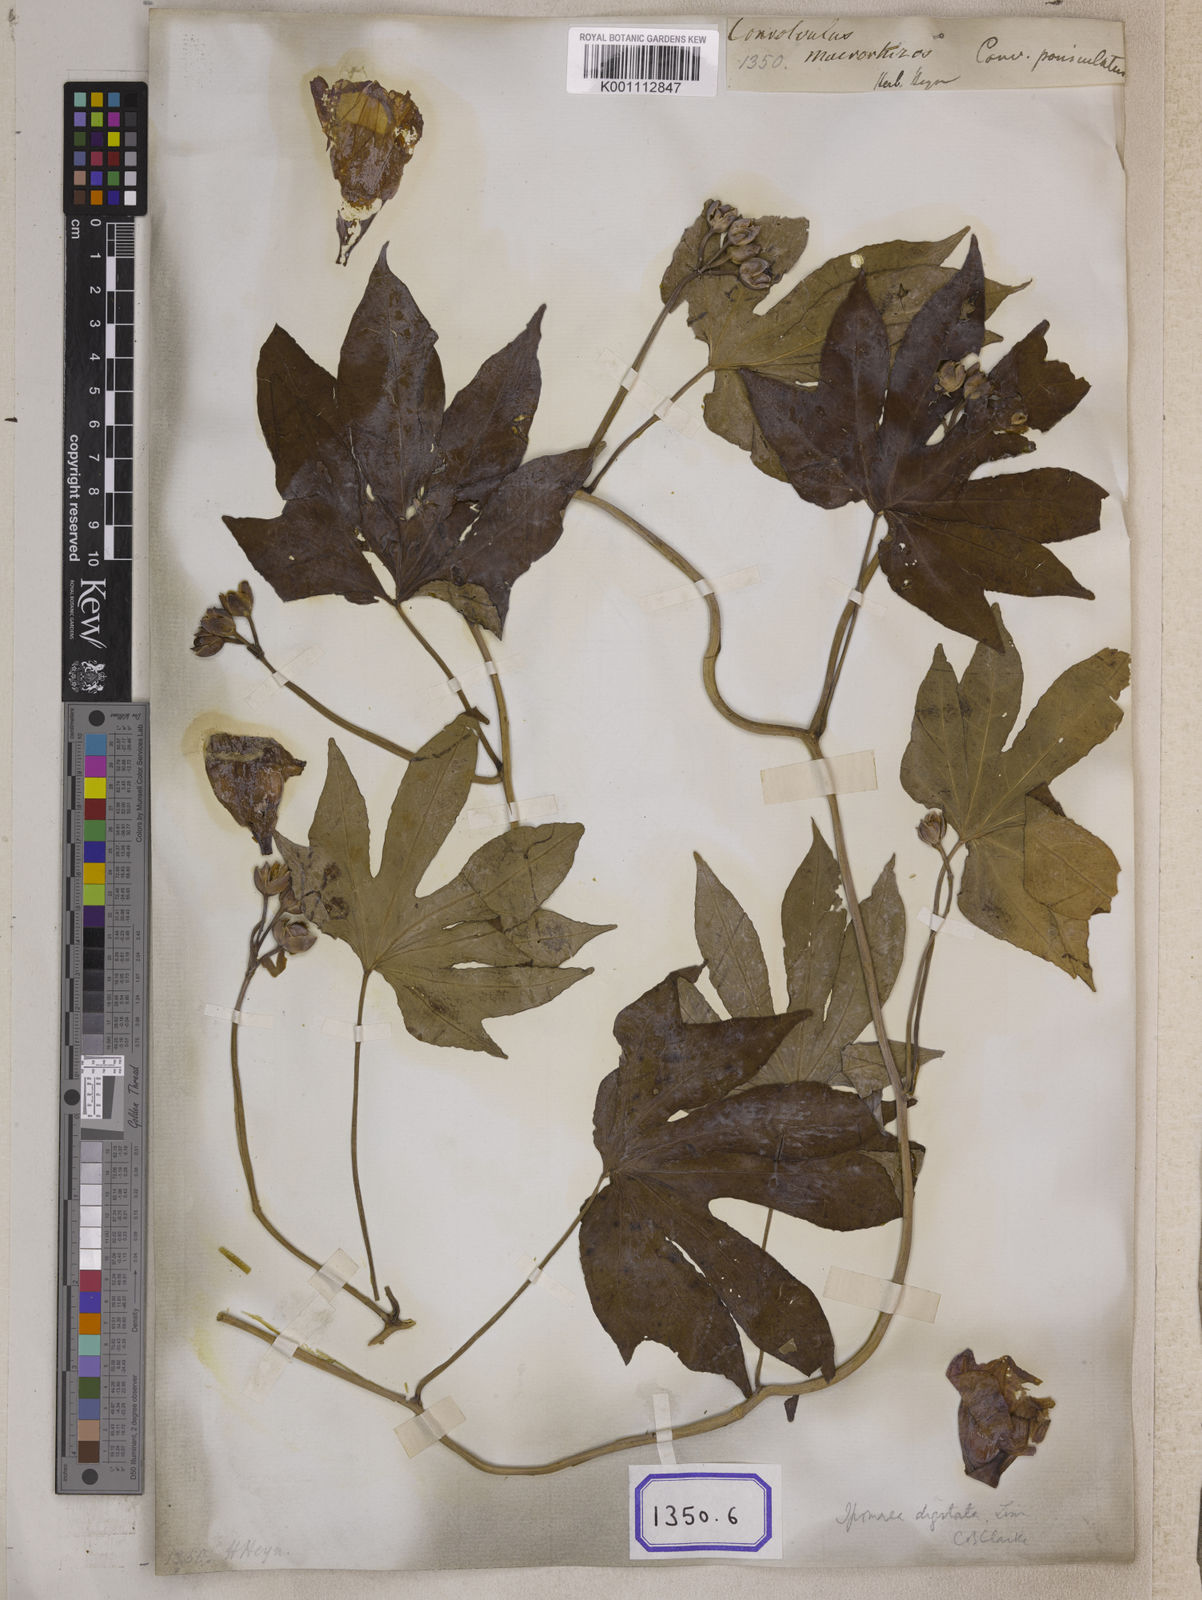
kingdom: Plantae
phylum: Tracheophyta
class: Magnoliopsida
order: Solanales
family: Convolvulaceae
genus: Ipomoea
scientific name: Ipomoea mauritiana
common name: Mauritanian convolvulus
